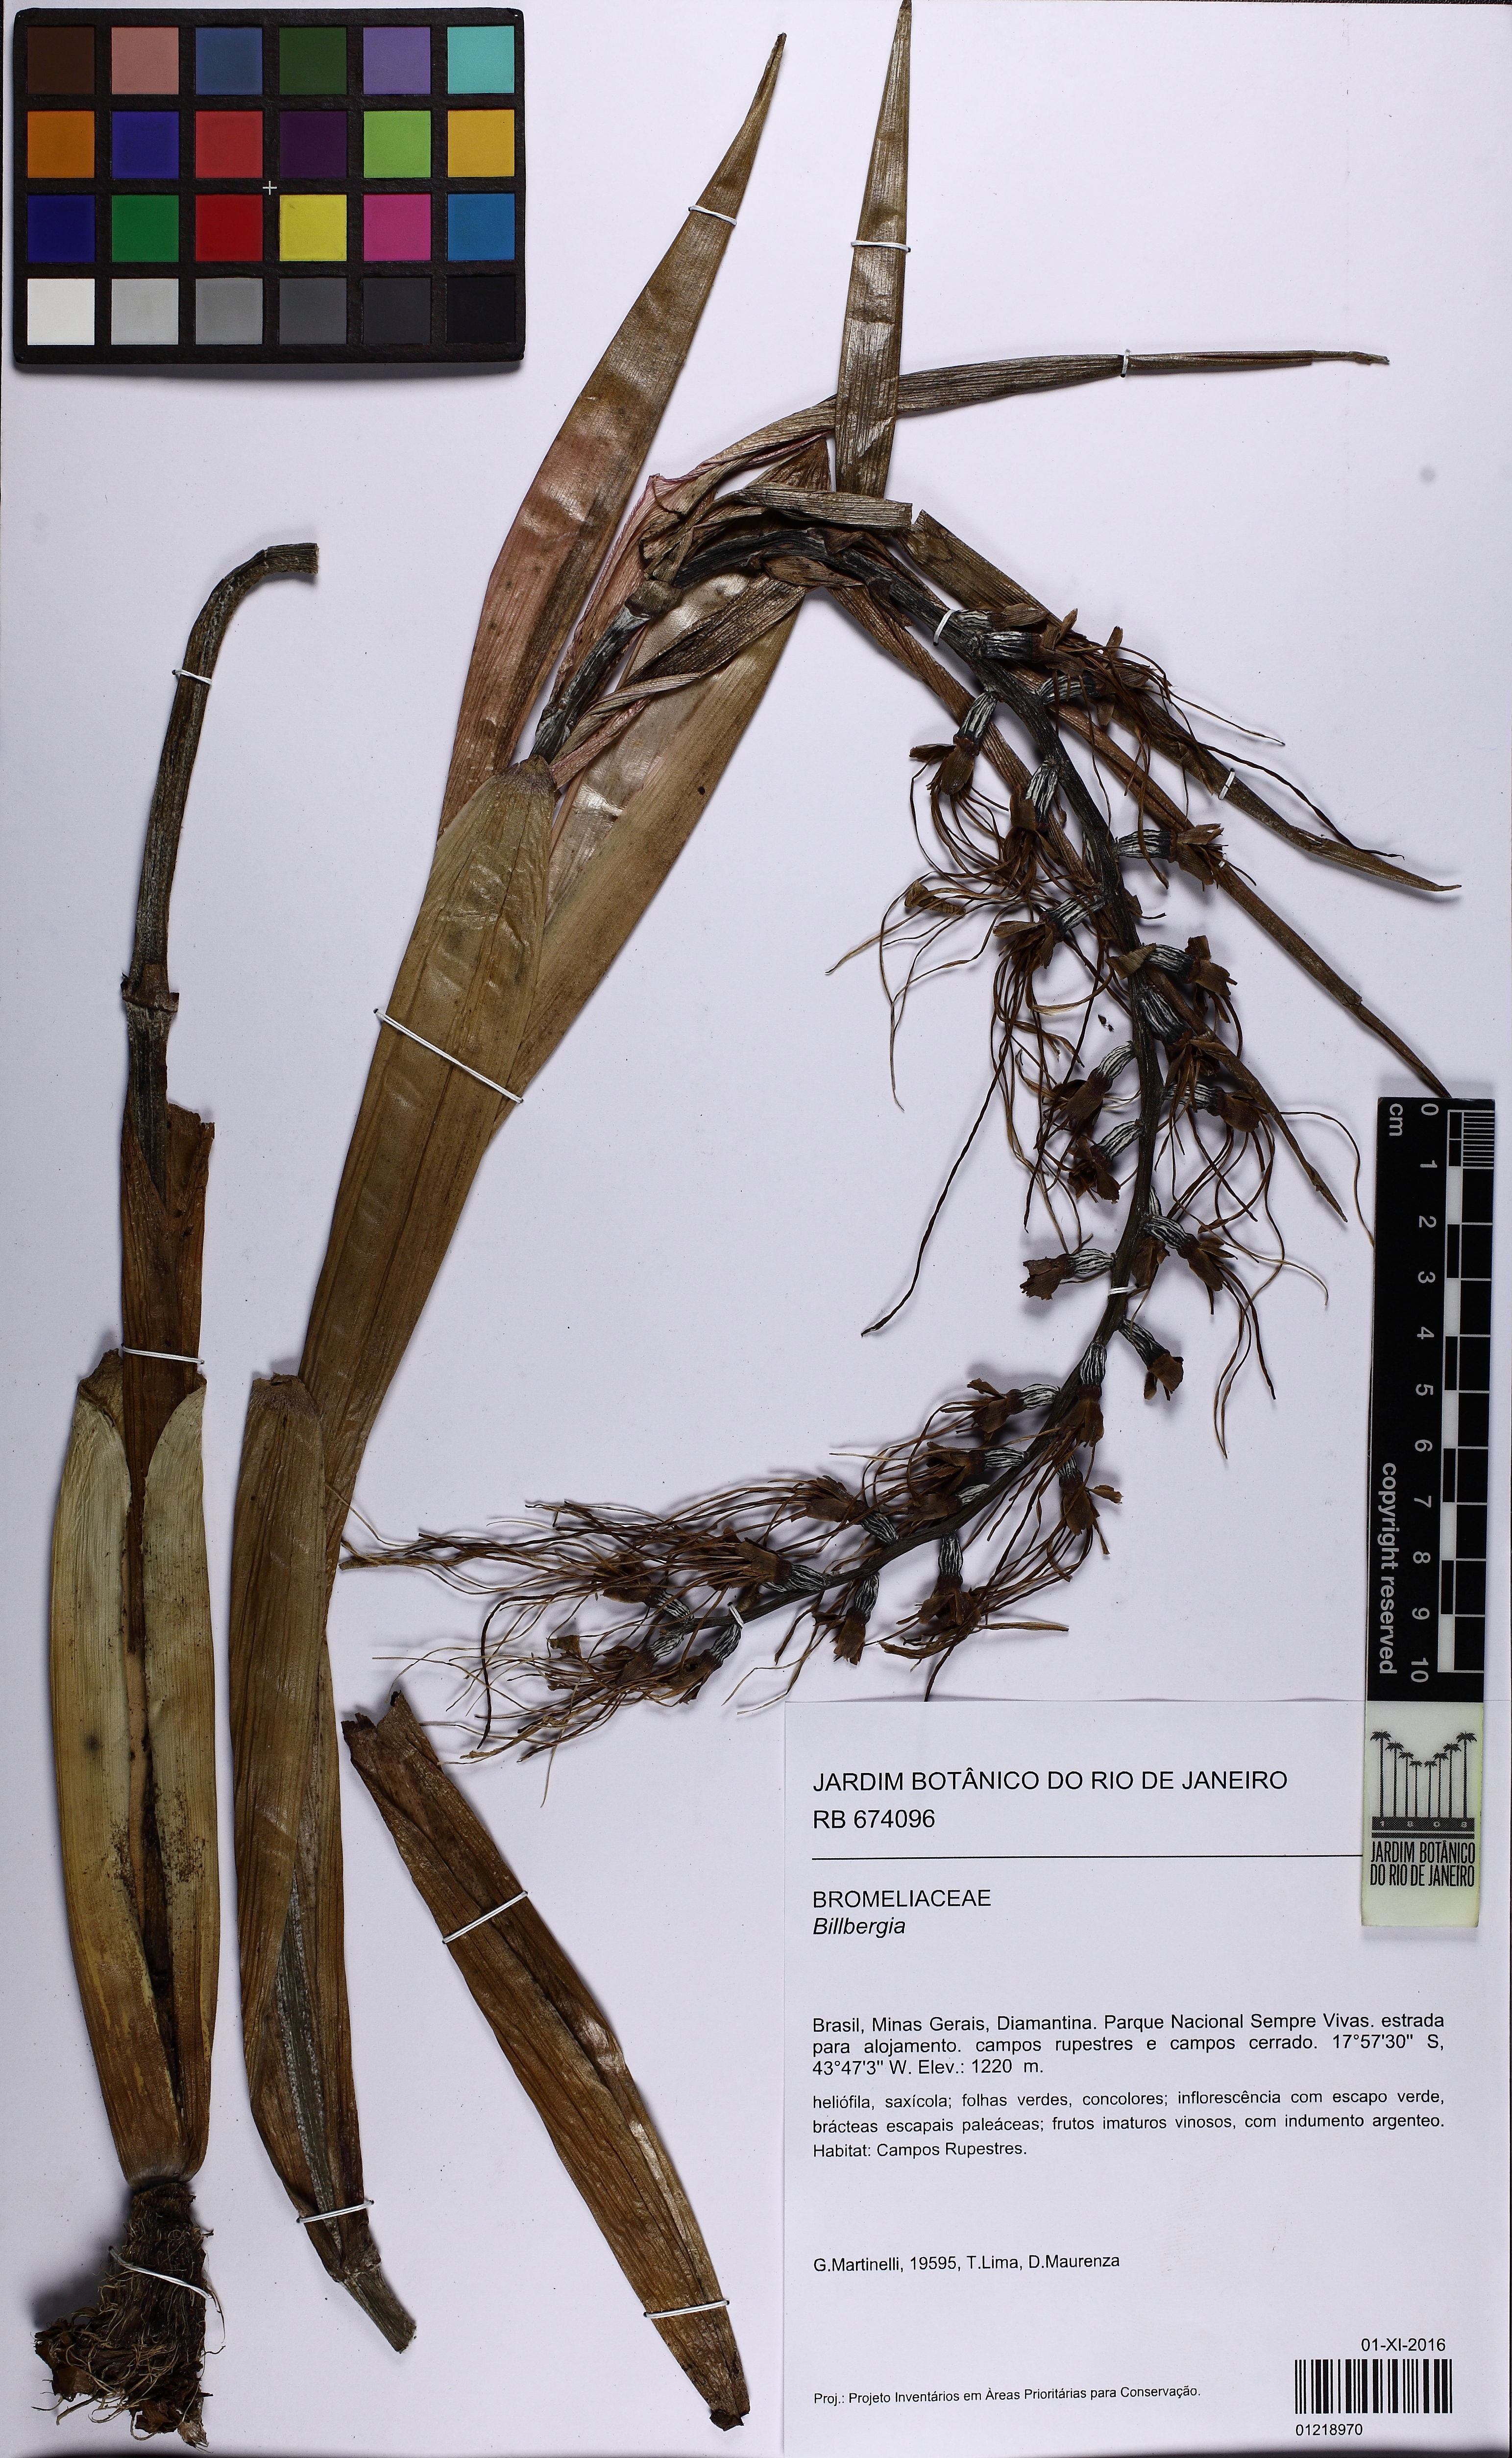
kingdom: Plantae
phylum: Tracheophyta
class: Liliopsida
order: Poales
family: Bromeliaceae
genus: Billbergia
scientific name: Billbergia zebrina
